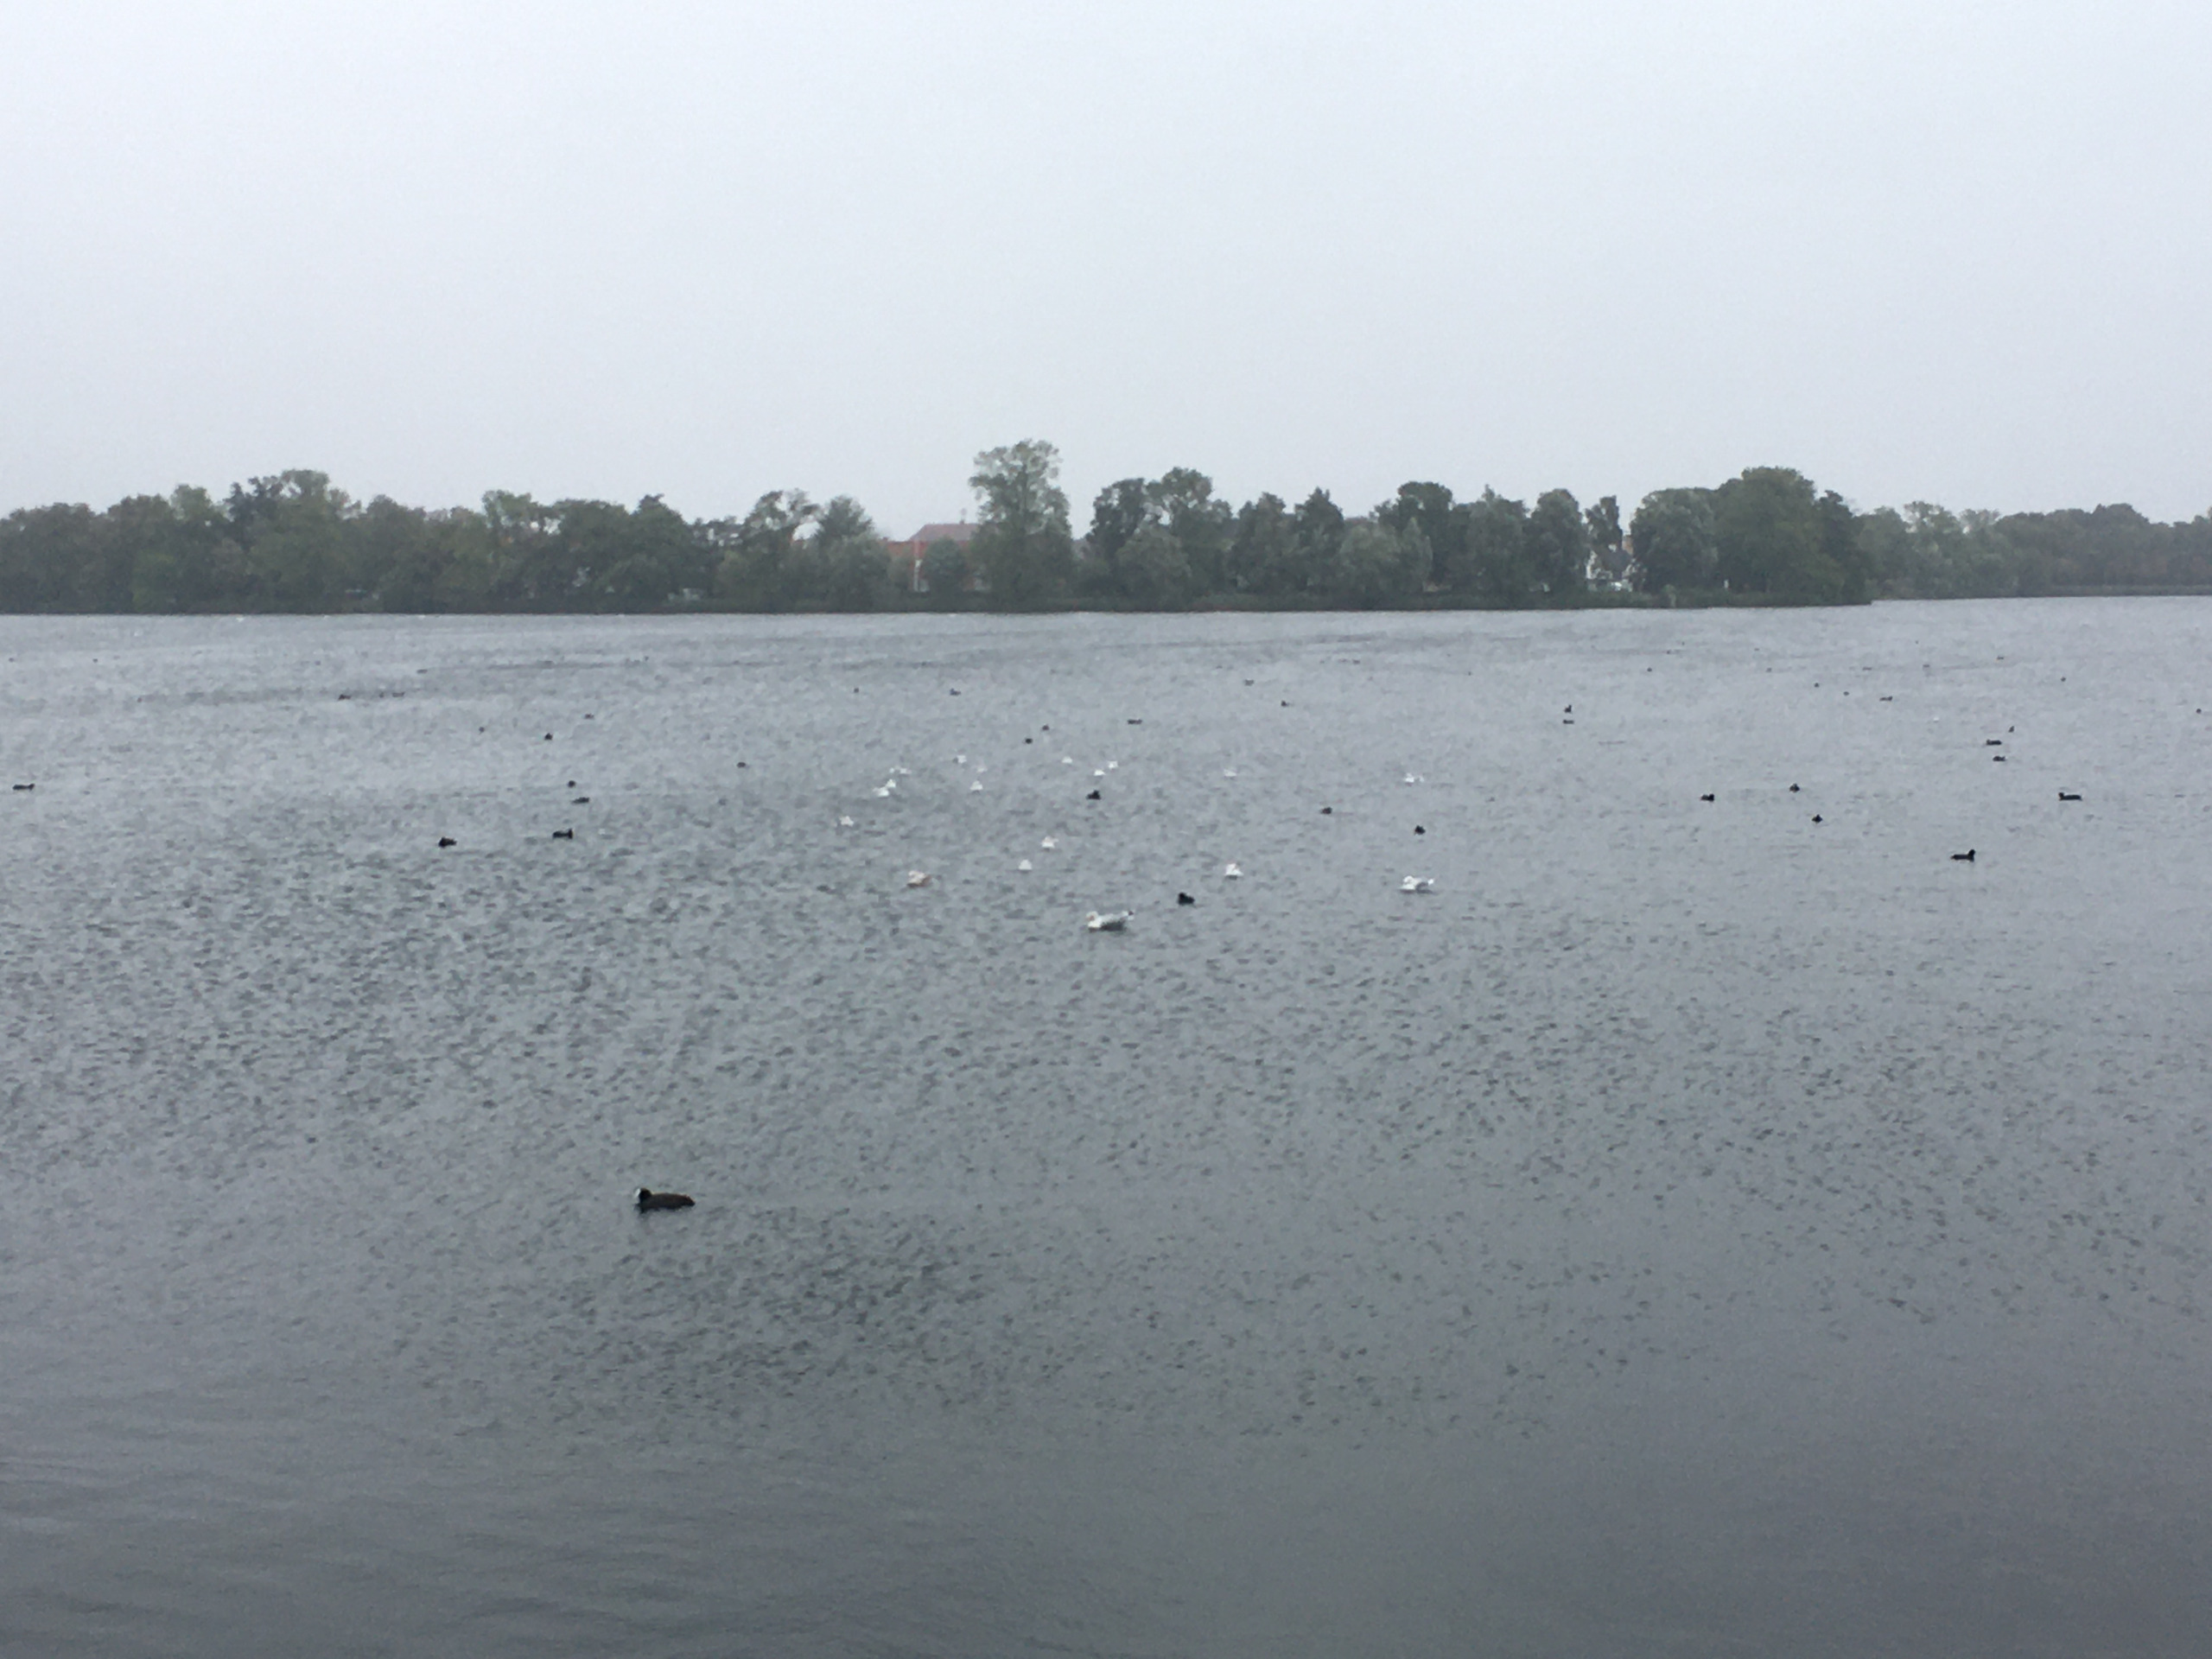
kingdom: Animalia
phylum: Chordata
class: Aves
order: Charadriiformes
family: Laridae
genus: Larus
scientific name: Larus argentatus
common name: Sølvmåge
